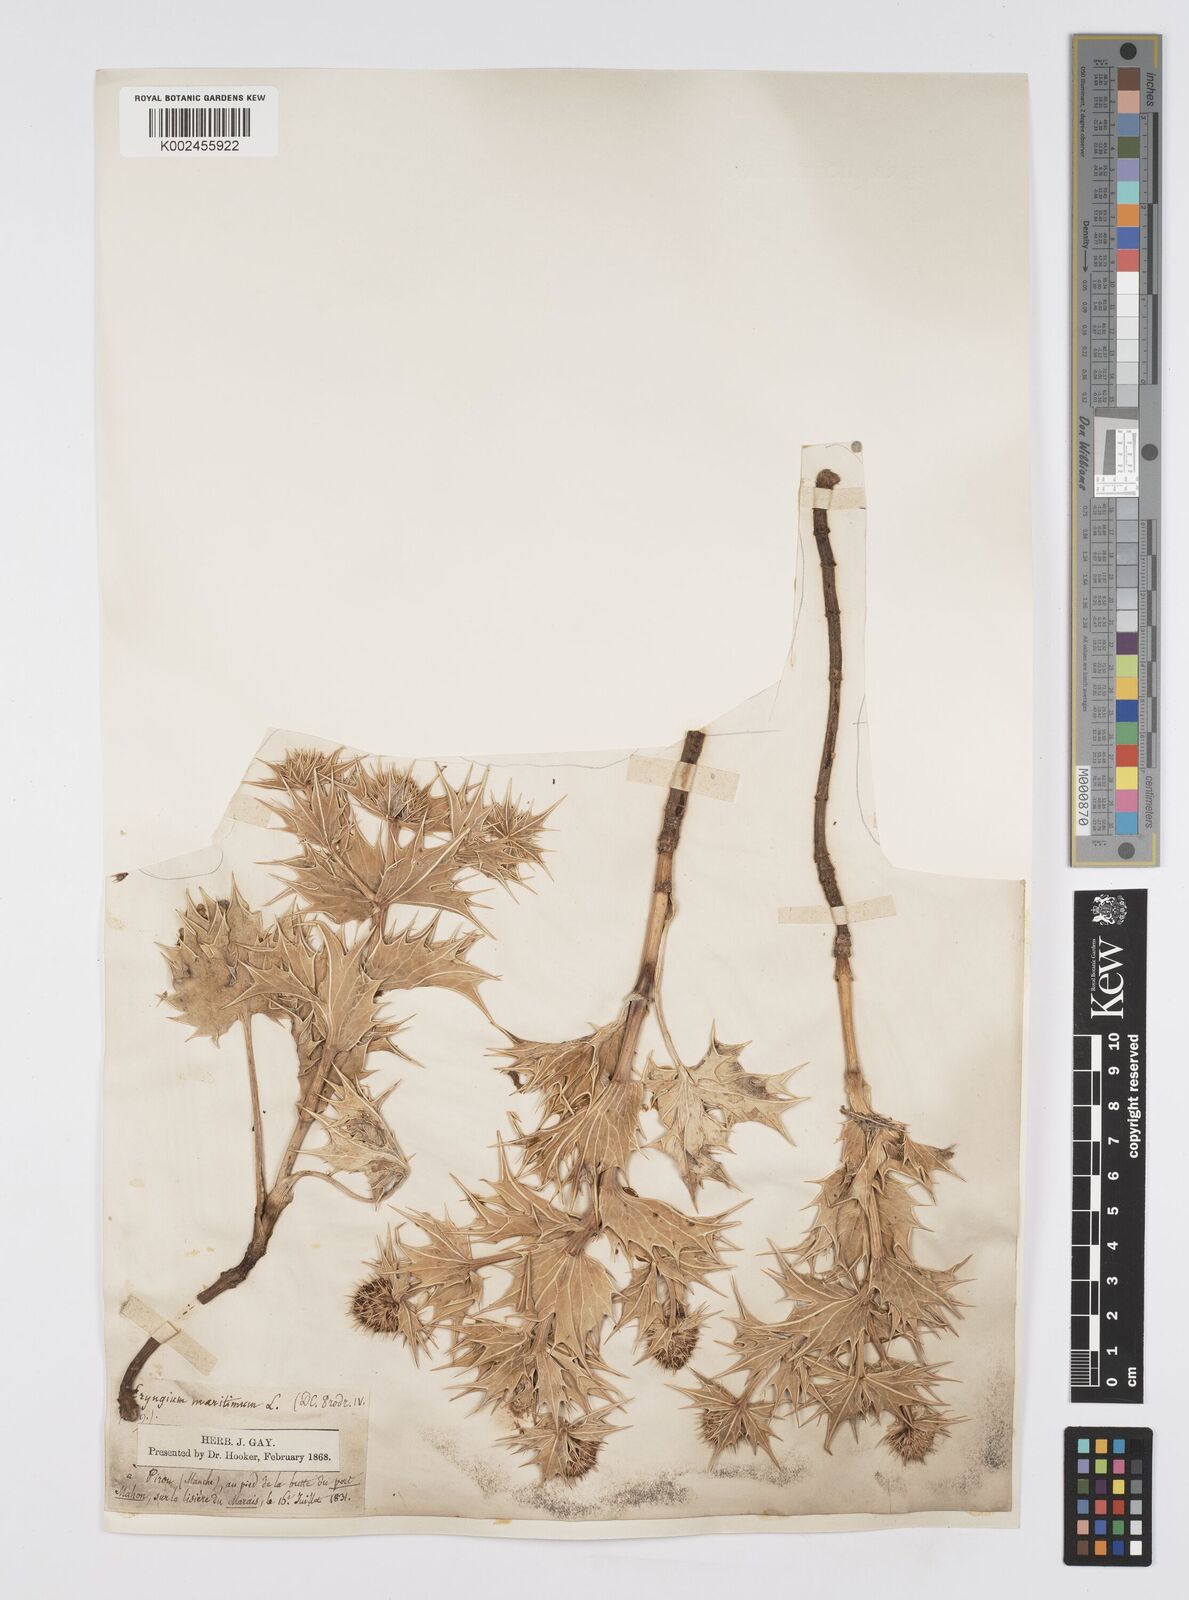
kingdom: Plantae
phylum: Tracheophyta
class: Magnoliopsida
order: Apiales
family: Apiaceae
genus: Eryngium
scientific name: Eryngium maritimum
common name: Sea-holly
